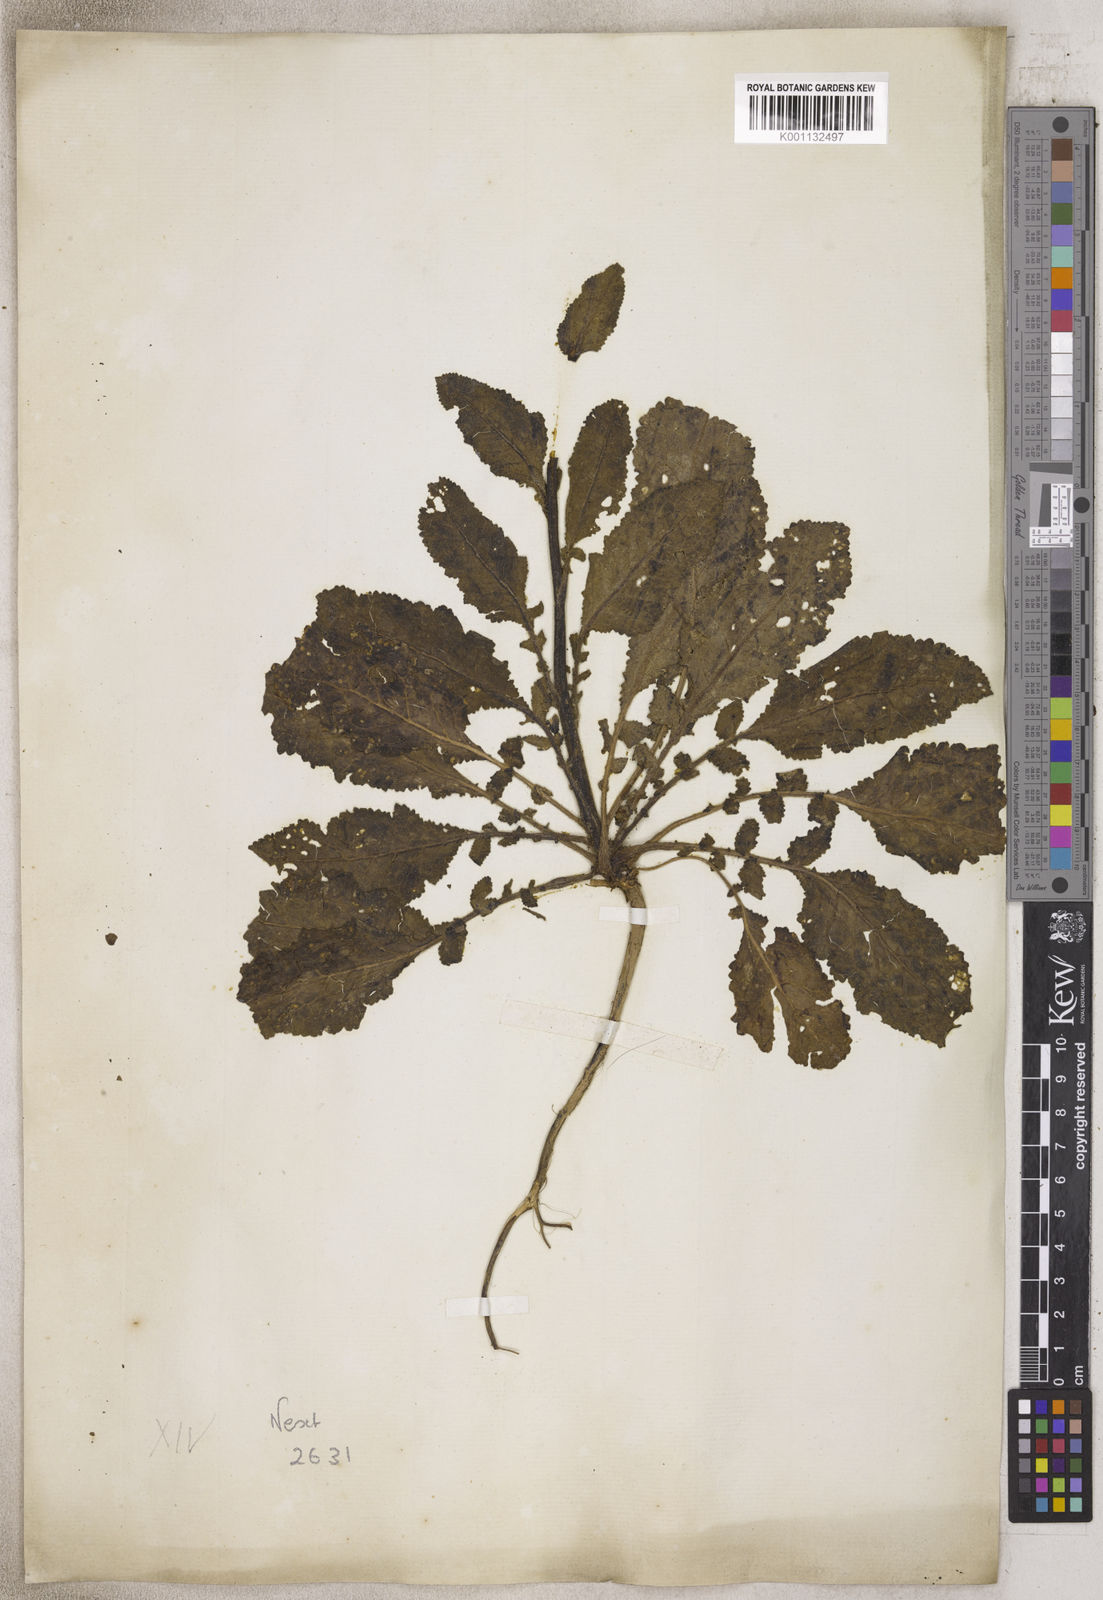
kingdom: Animalia
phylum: Arthropoda
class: Insecta
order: Lepidoptera
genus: Celsia
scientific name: Celsia
